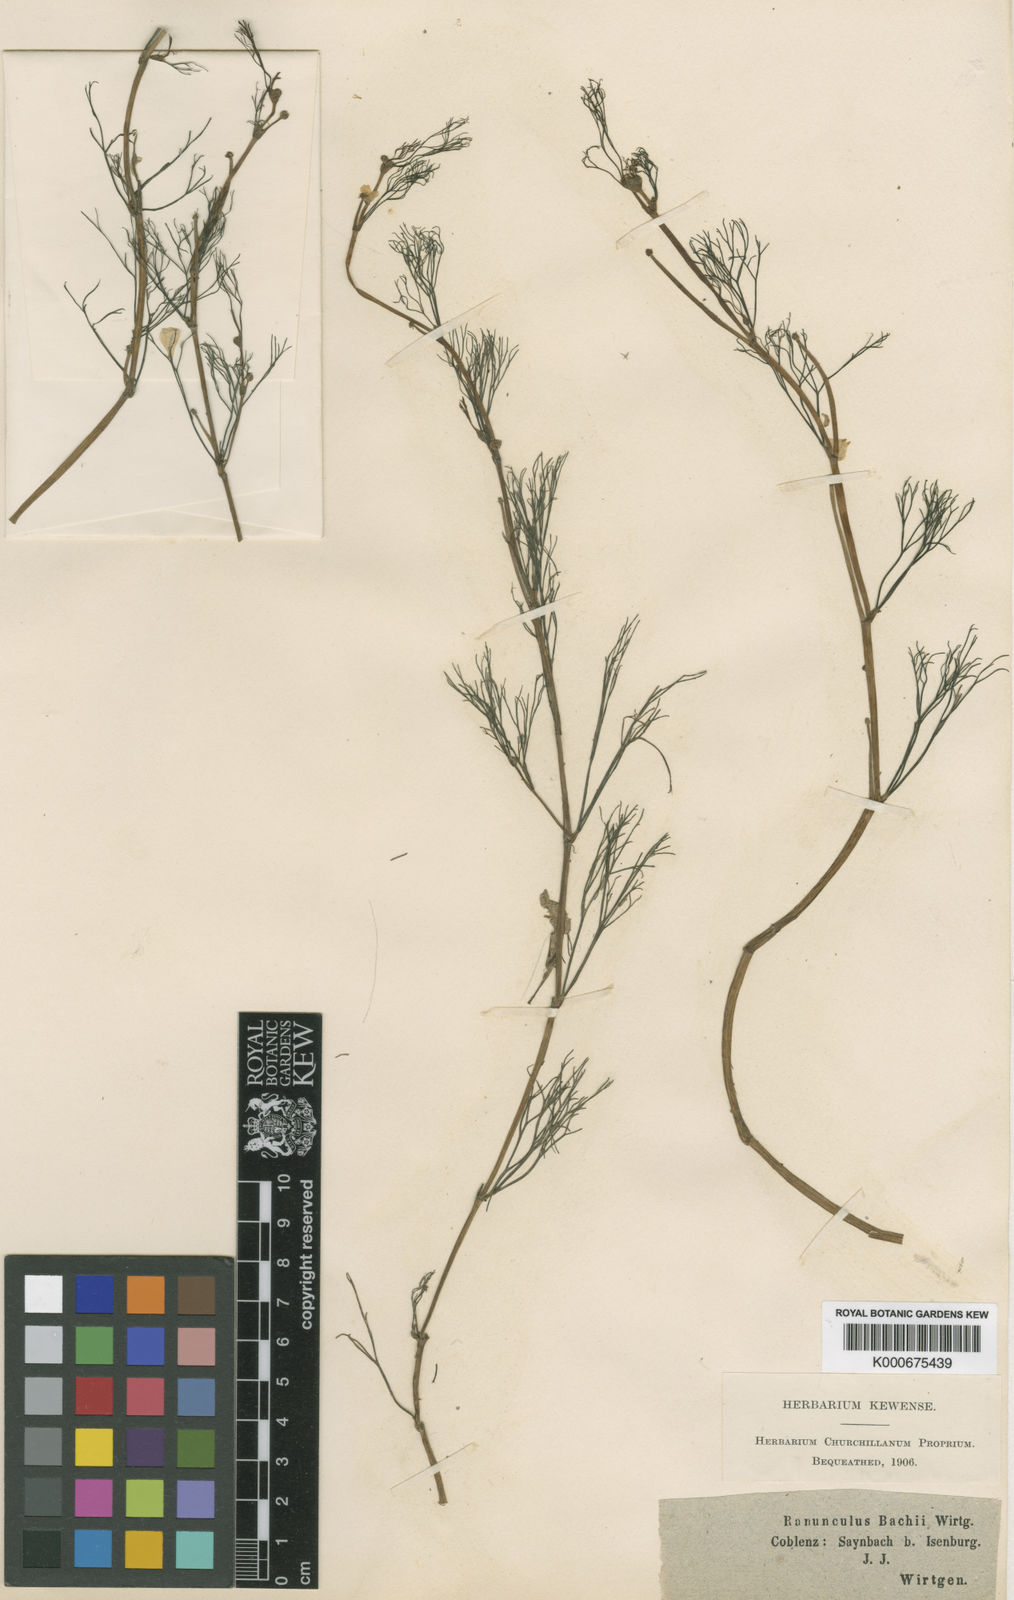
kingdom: Plantae
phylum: Tracheophyta
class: Magnoliopsida
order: Ranunculales
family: Ranunculaceae
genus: Ranunculus
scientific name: Ranunculus fluitans
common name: River water-crowfoot
